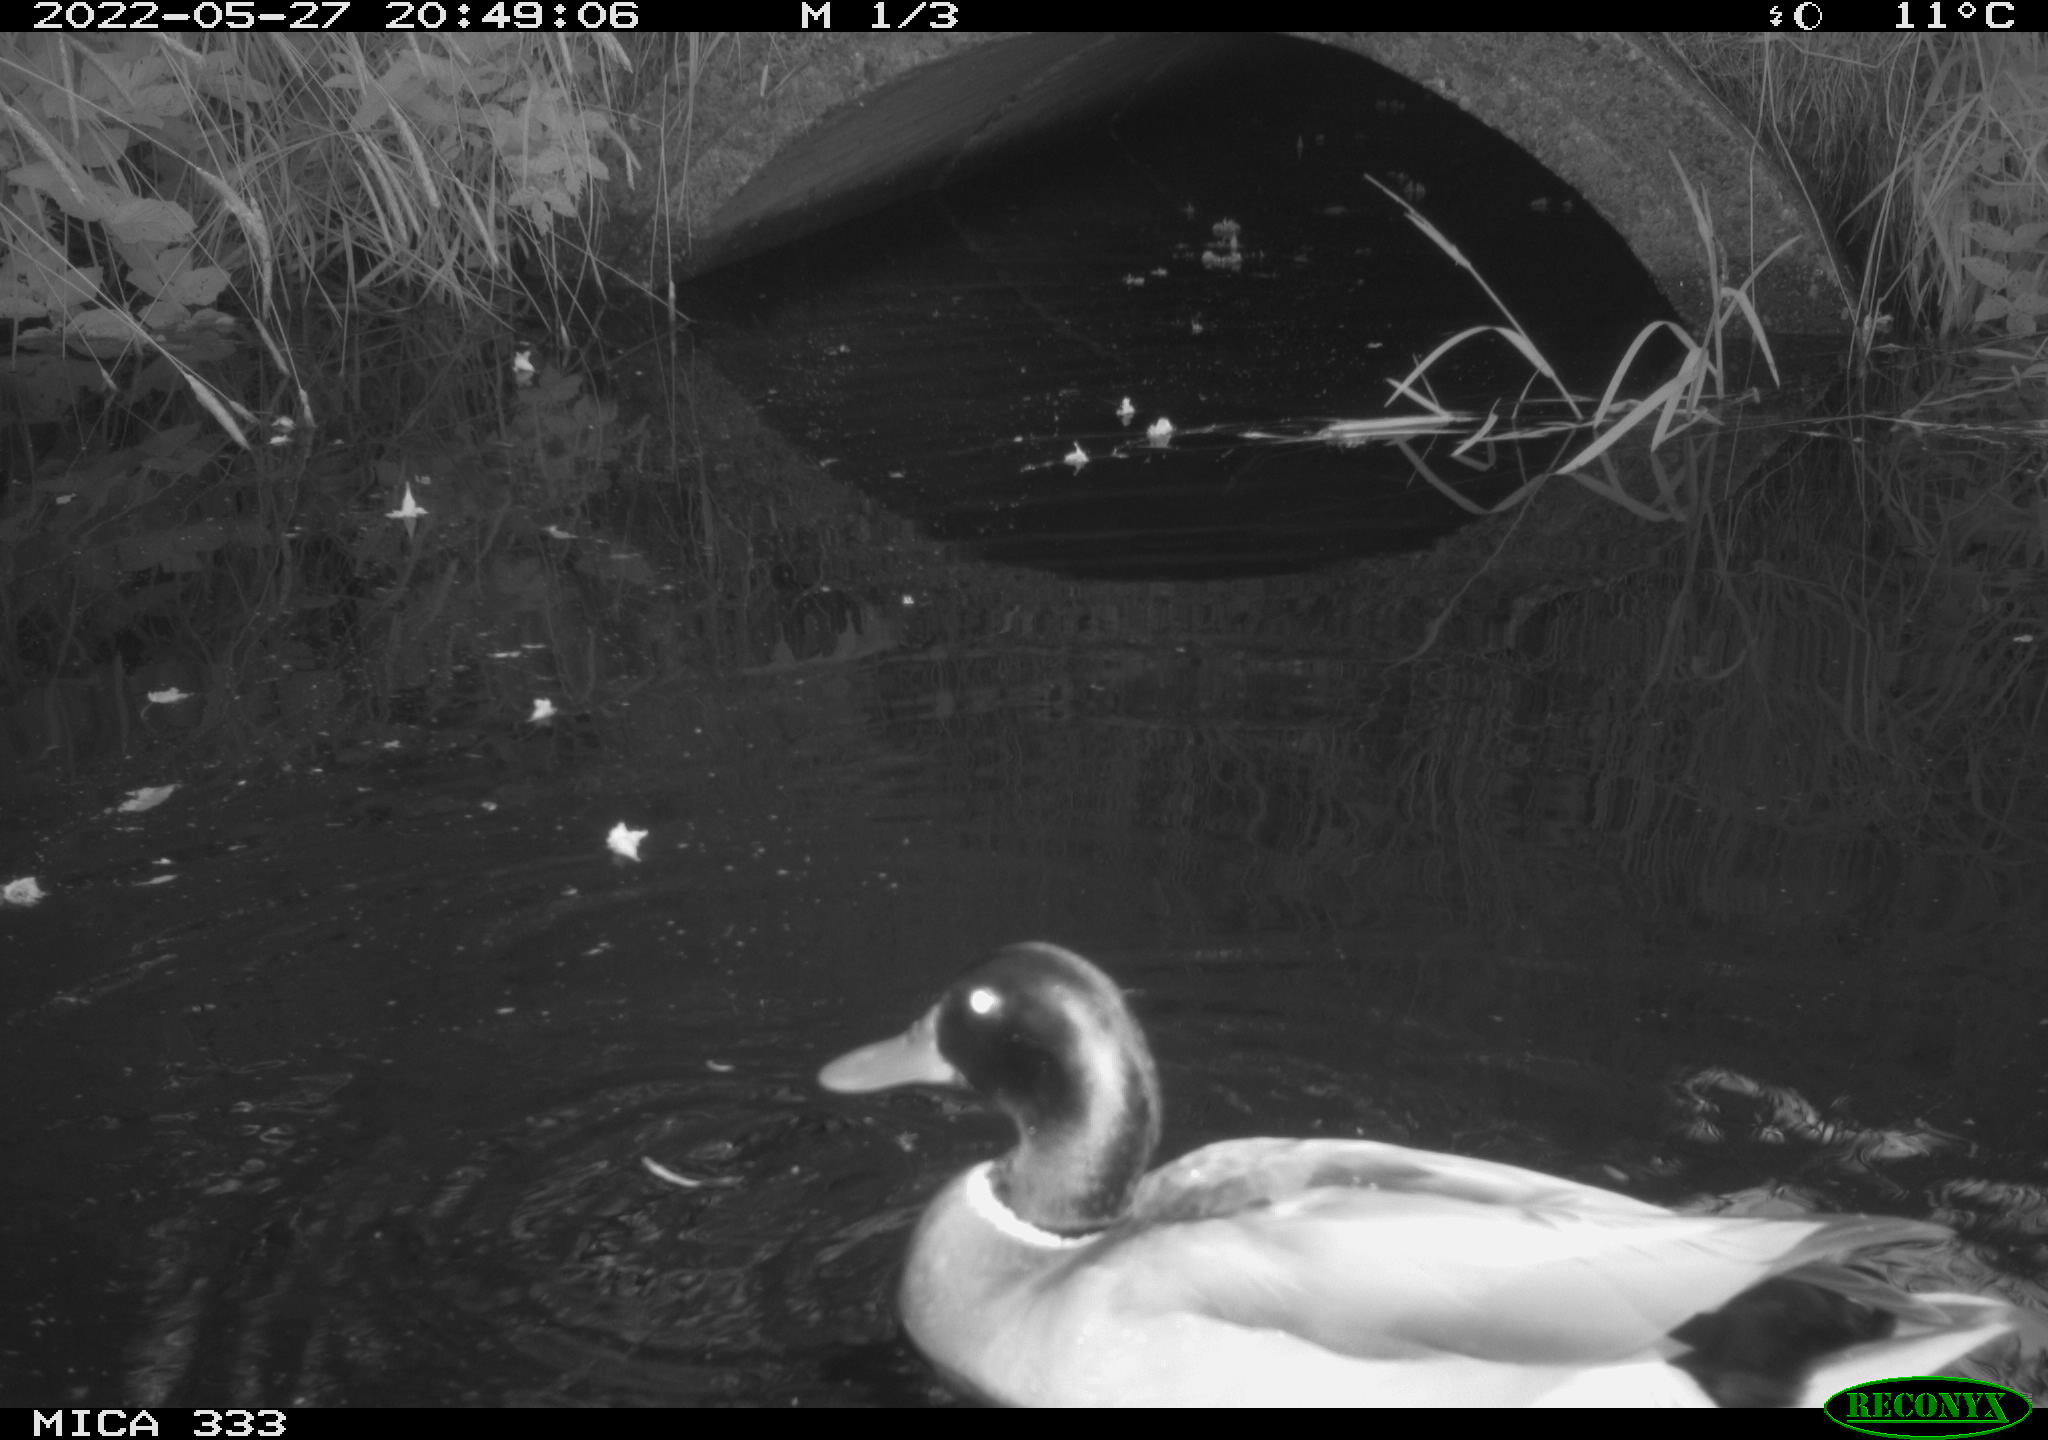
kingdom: Animalia
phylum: Chordata
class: Aves
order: Anseriformes
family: Anatidae
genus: Anas
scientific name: Anas platyrhynchos
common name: Mallard
